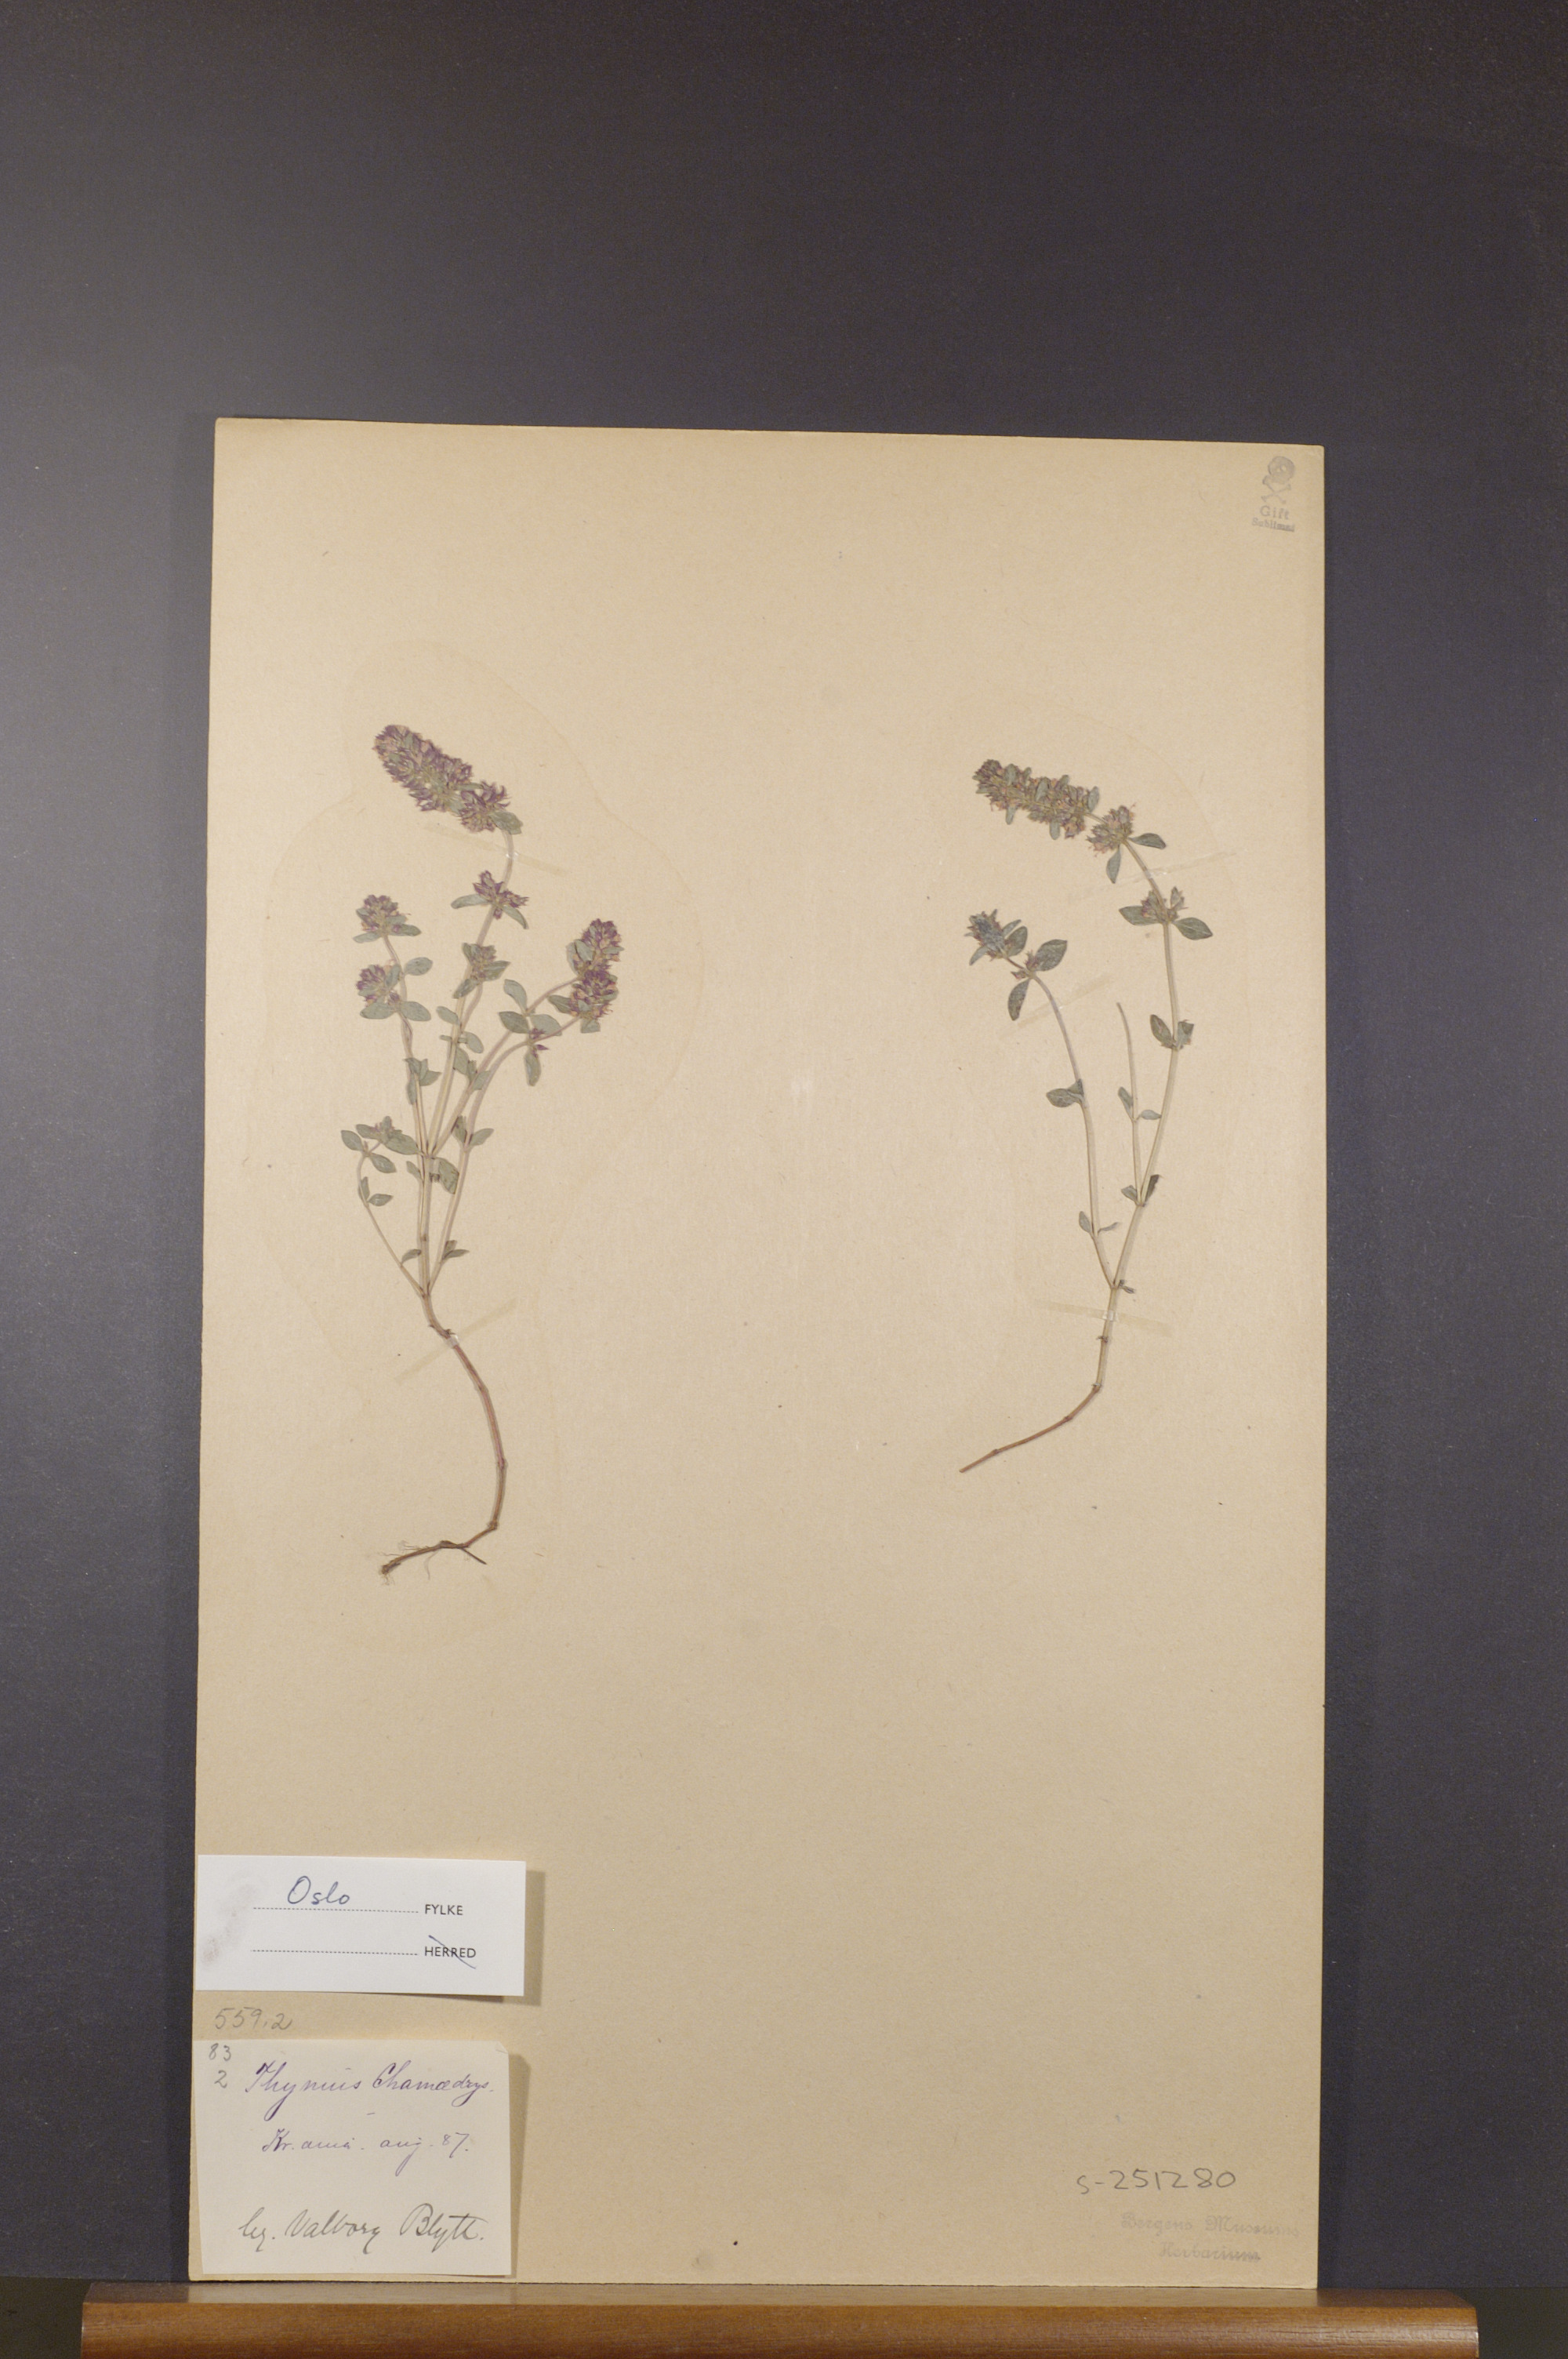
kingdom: Plantae
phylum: Tracheophyta
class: Magnoliopsida
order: Lamiales
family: Lamiaceae
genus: Thymus
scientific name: Thymus pulegioides
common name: Large thyme
